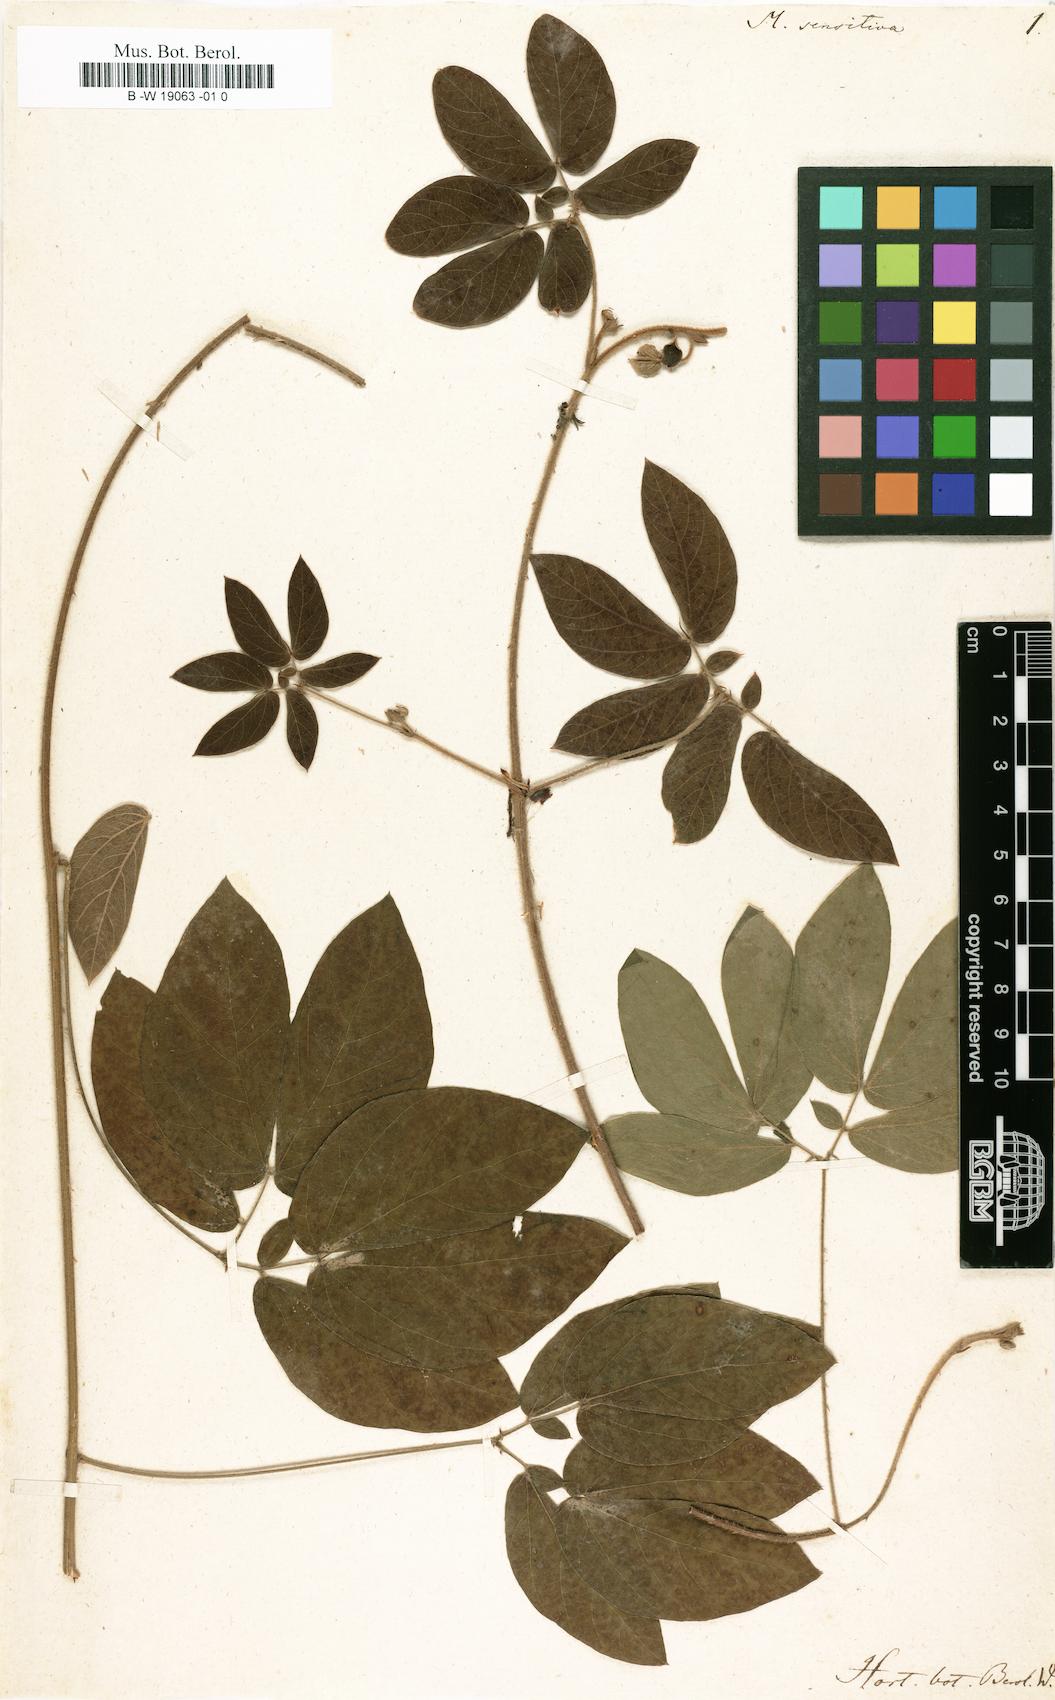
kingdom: Plantae
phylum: Tracheophyta
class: Magnoliopsida
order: Fabales
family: Fabaceae
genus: Mimosa
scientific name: Mimosa sensitiva
